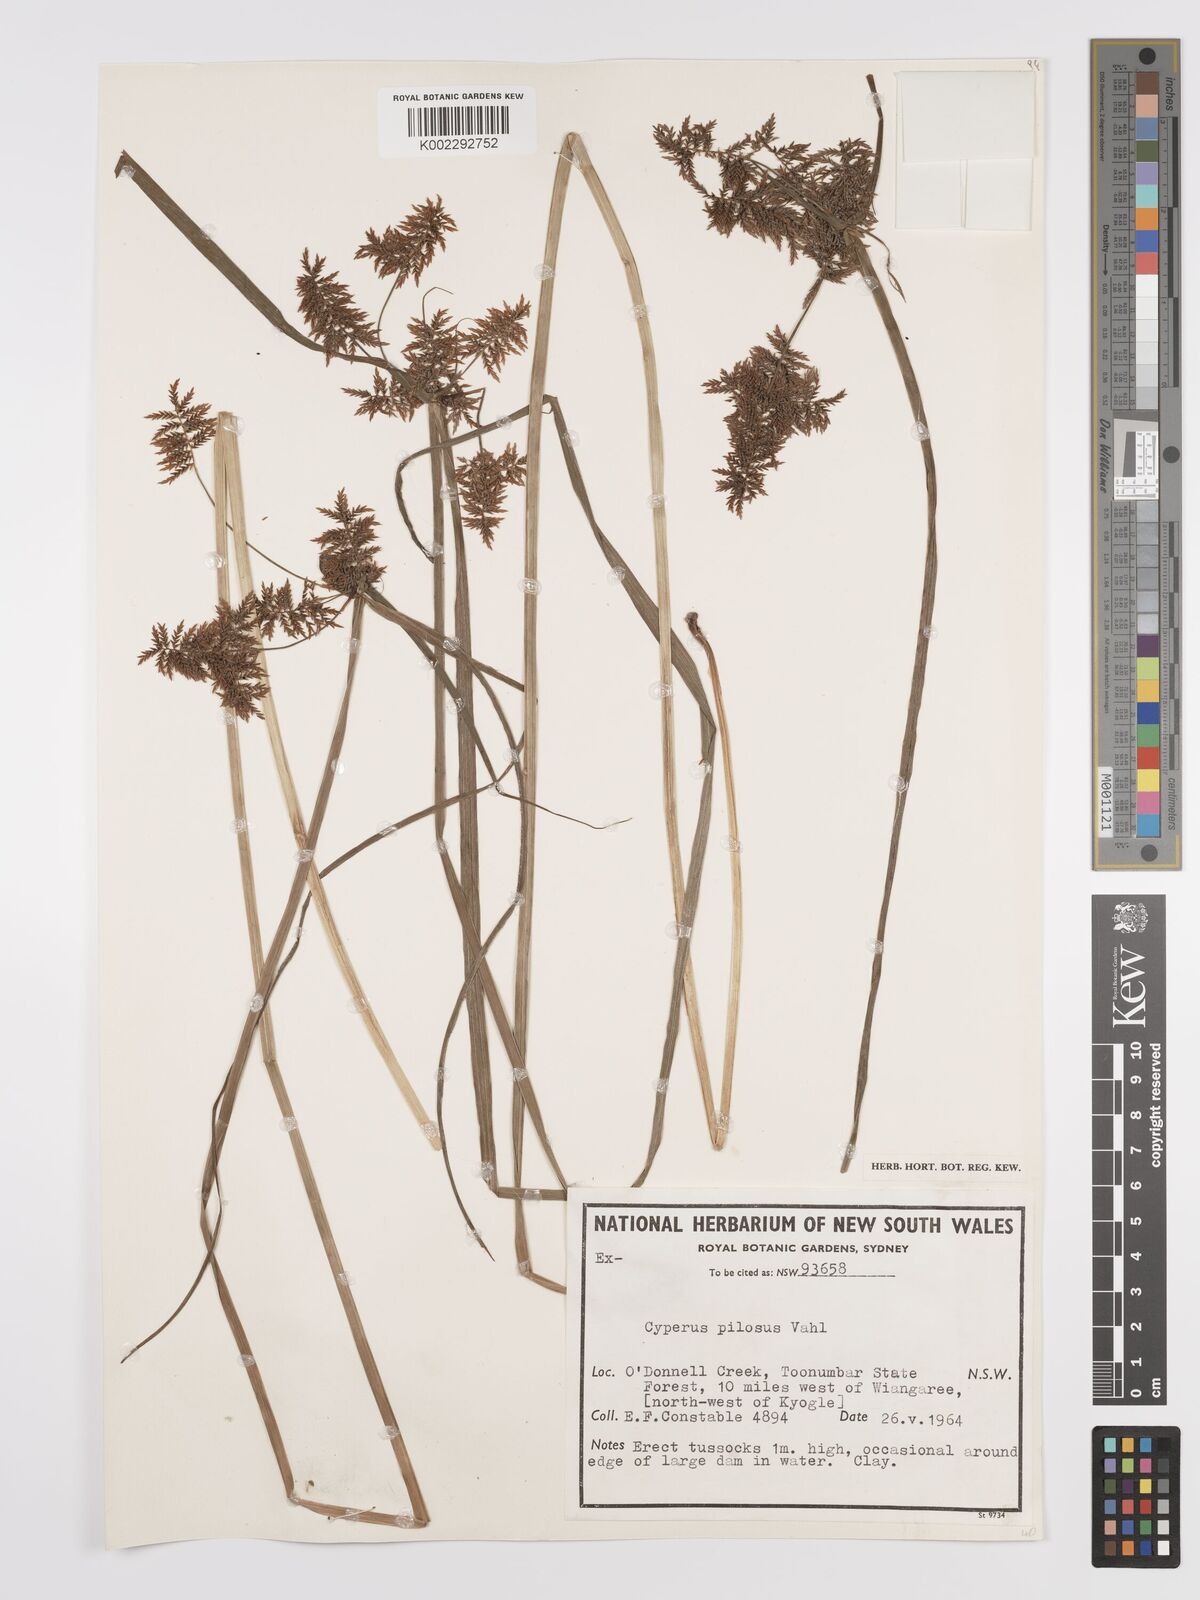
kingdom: Plantae
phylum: Tracheophyta
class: Liliopsida
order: Poales
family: Cyperaceae
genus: Cyperus
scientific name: Cyperus pilosus
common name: Fuzzy flatsedge
